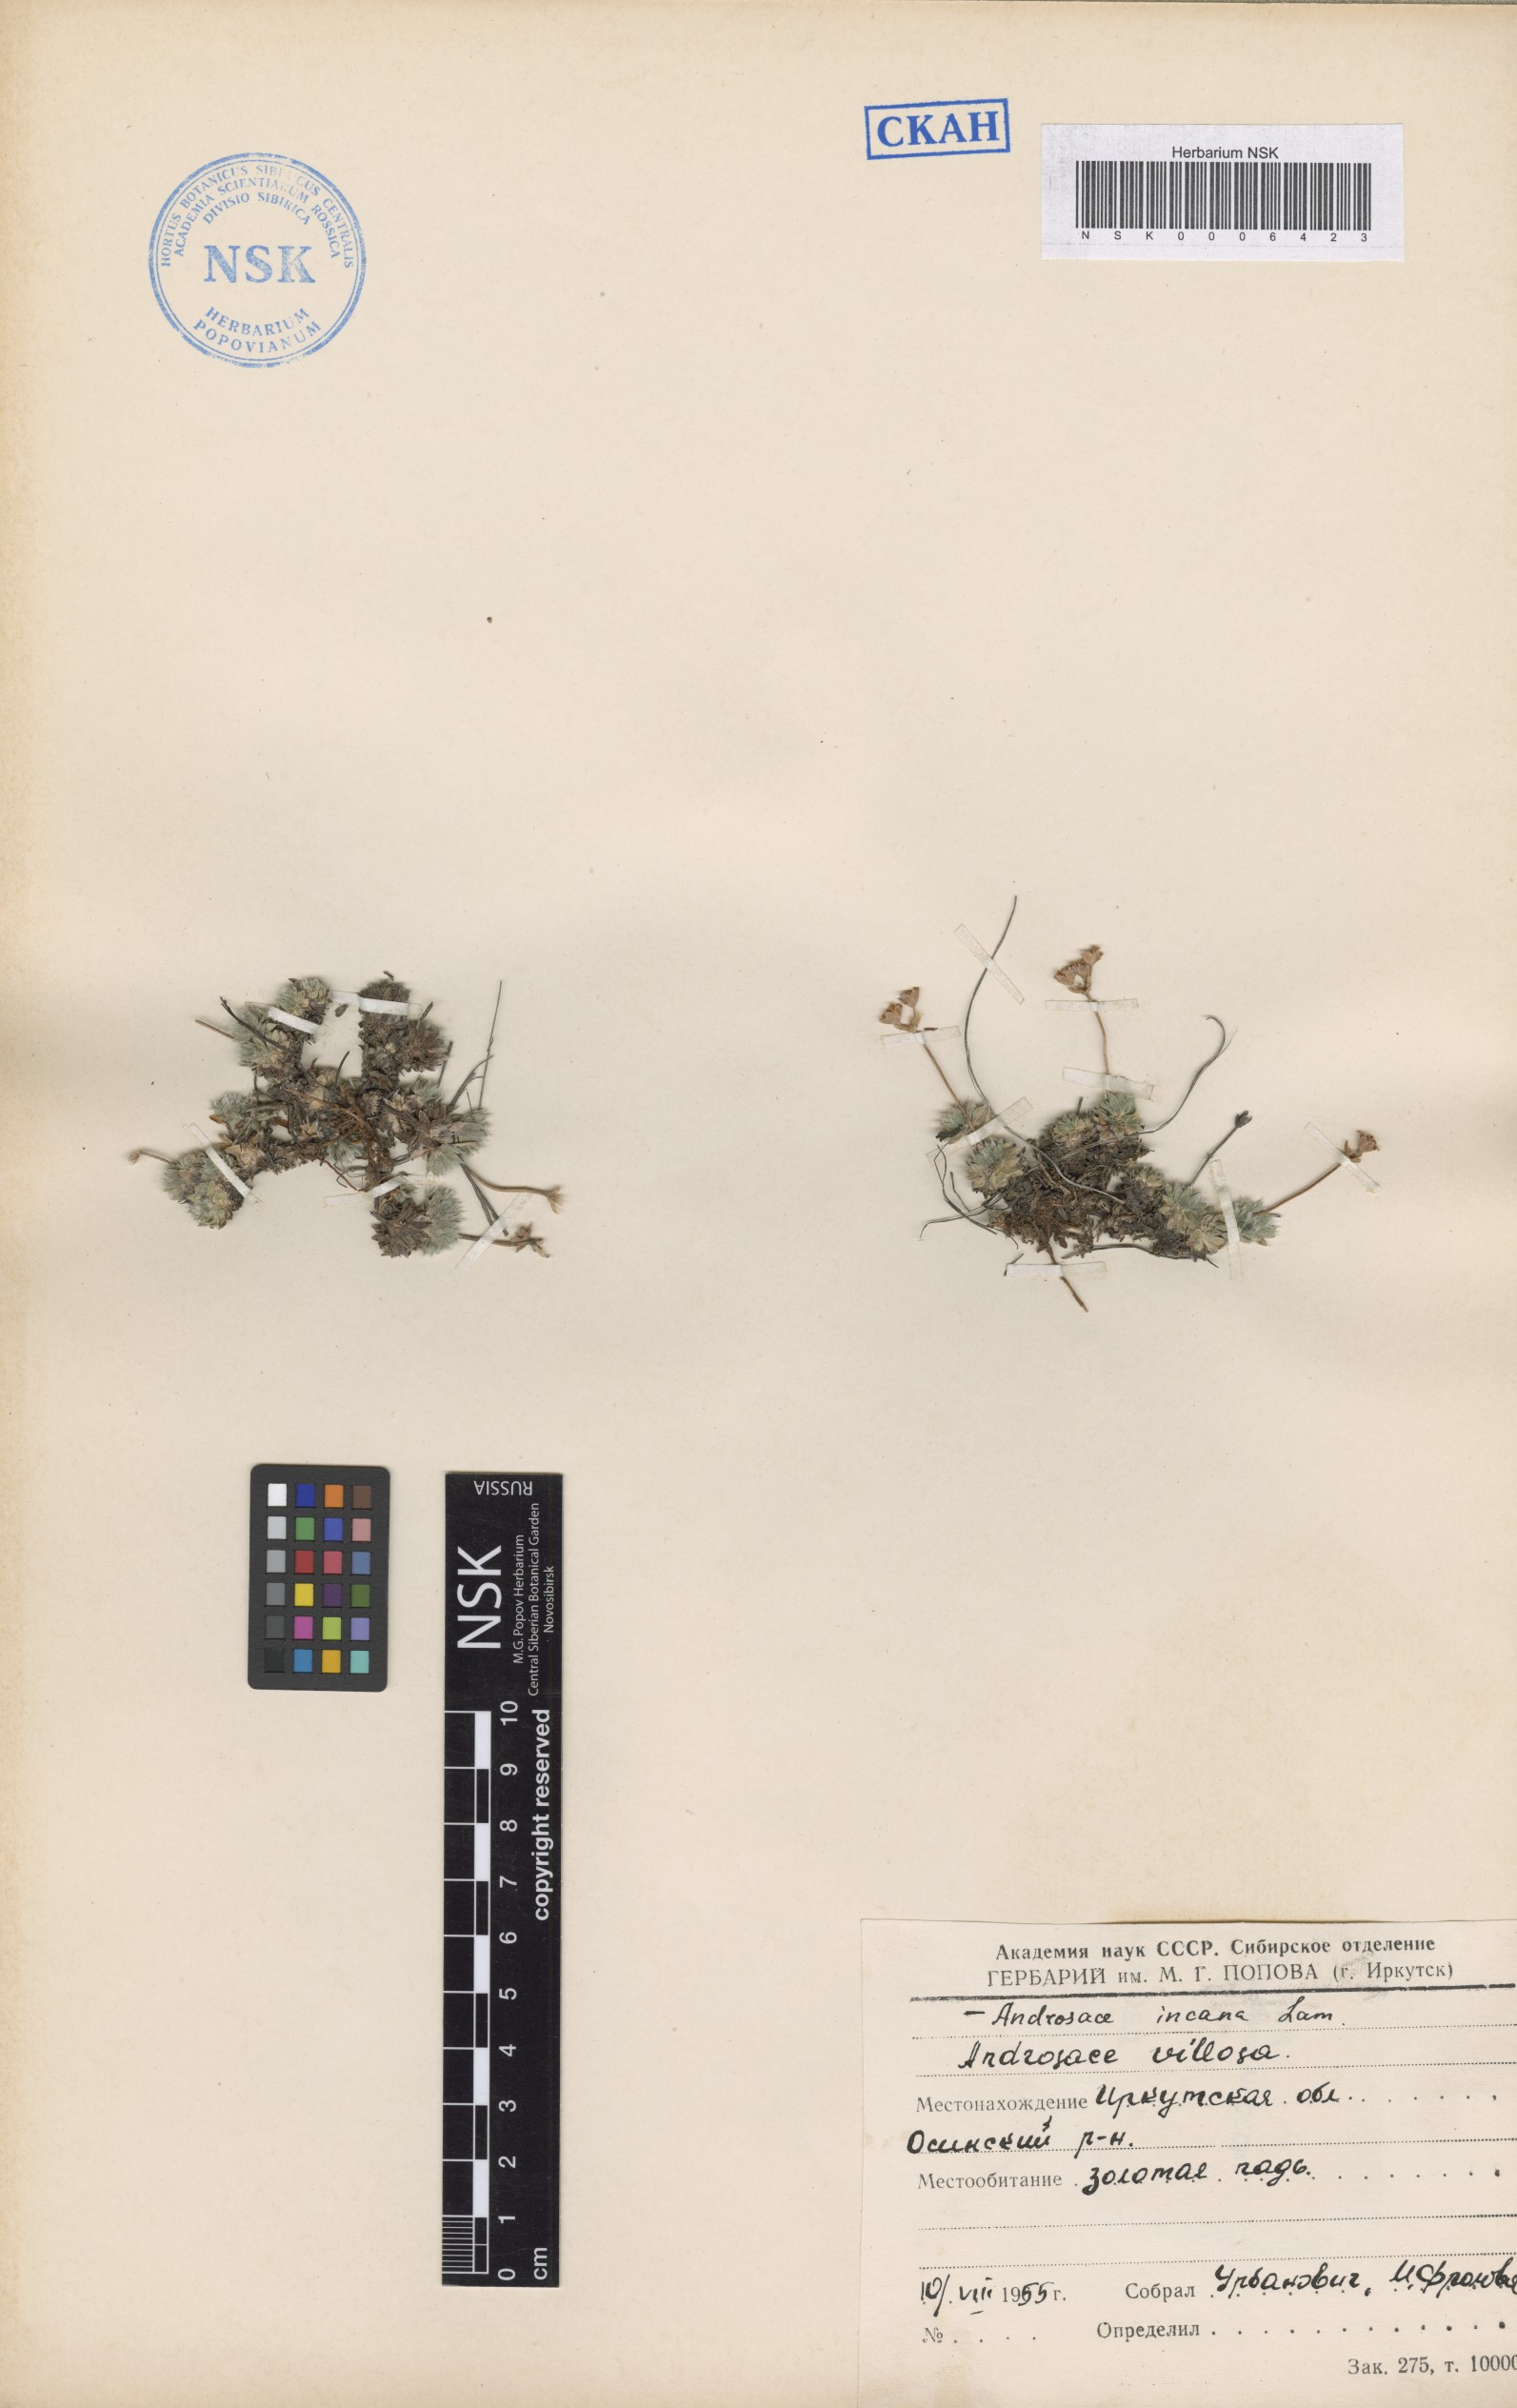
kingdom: Plantae
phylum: Tracheophyta
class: Magnoliopsida
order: Ericales
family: Primulaceae
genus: Androsace
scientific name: Androsace incana
